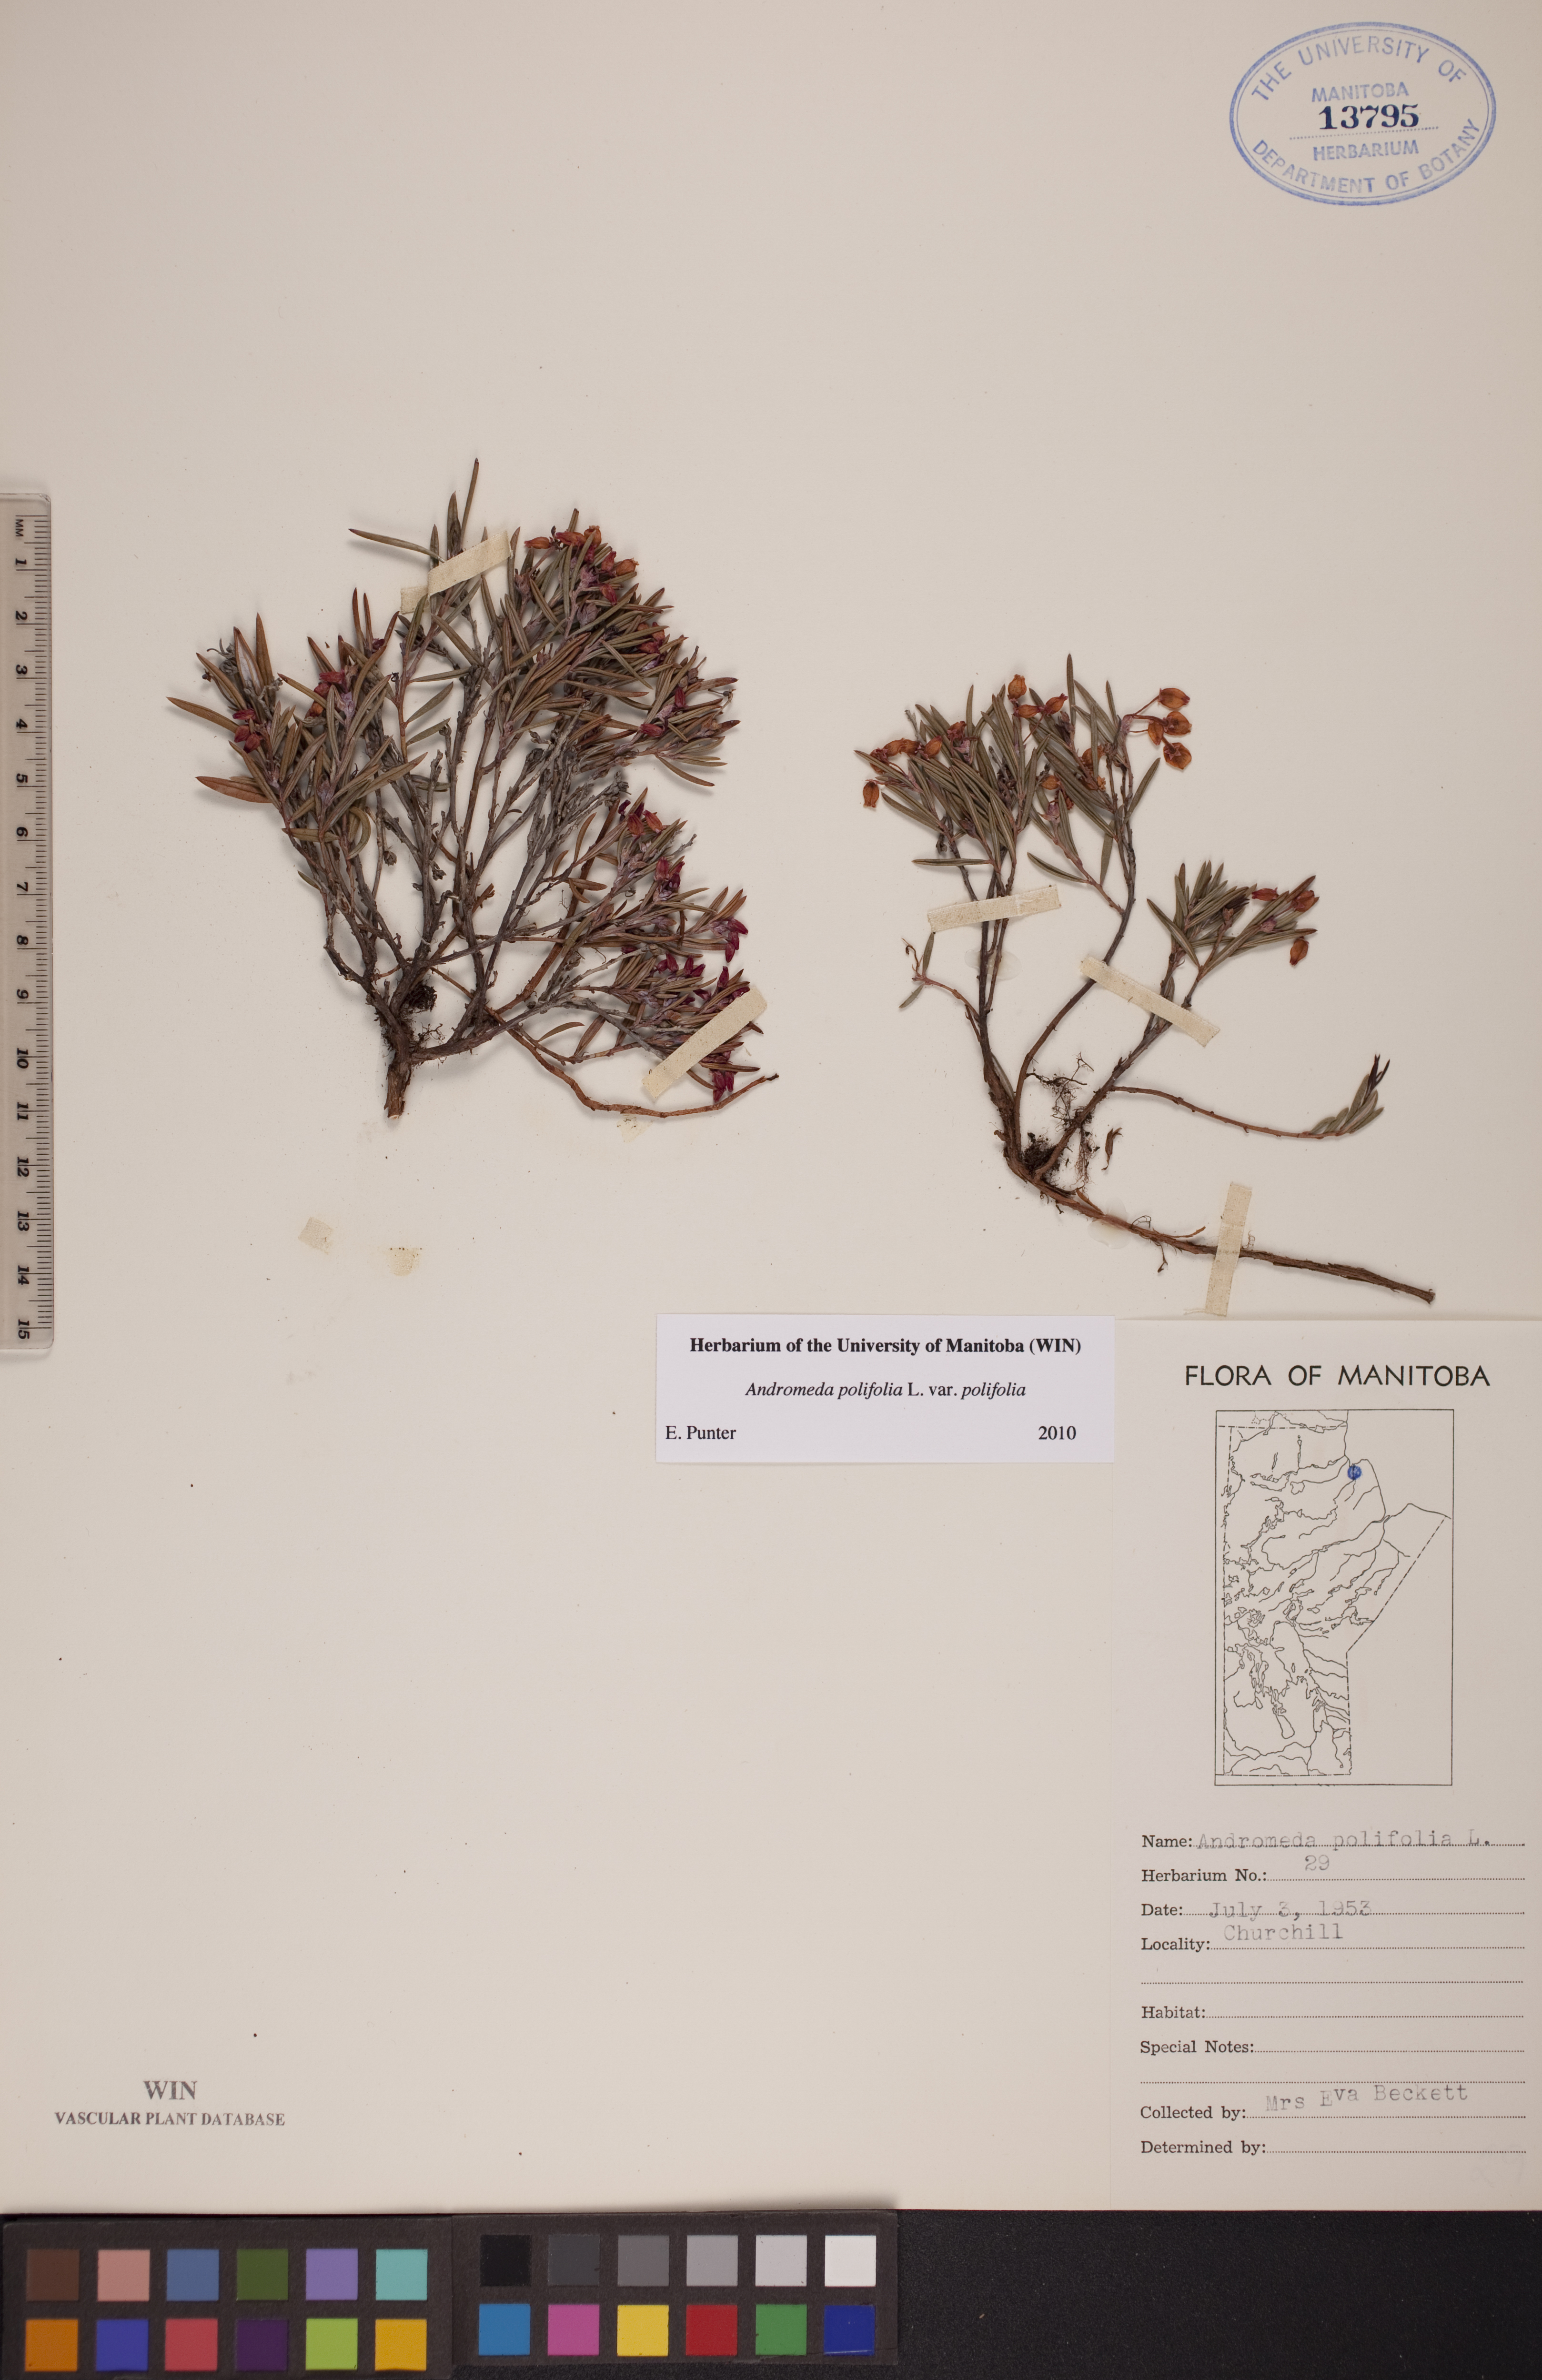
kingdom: Plantae
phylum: Tracheophyta
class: Magnoliopsida
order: Ericales
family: Ericaceae
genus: Andromeda
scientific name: Andromeda polifolia
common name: Bog-rosemary
